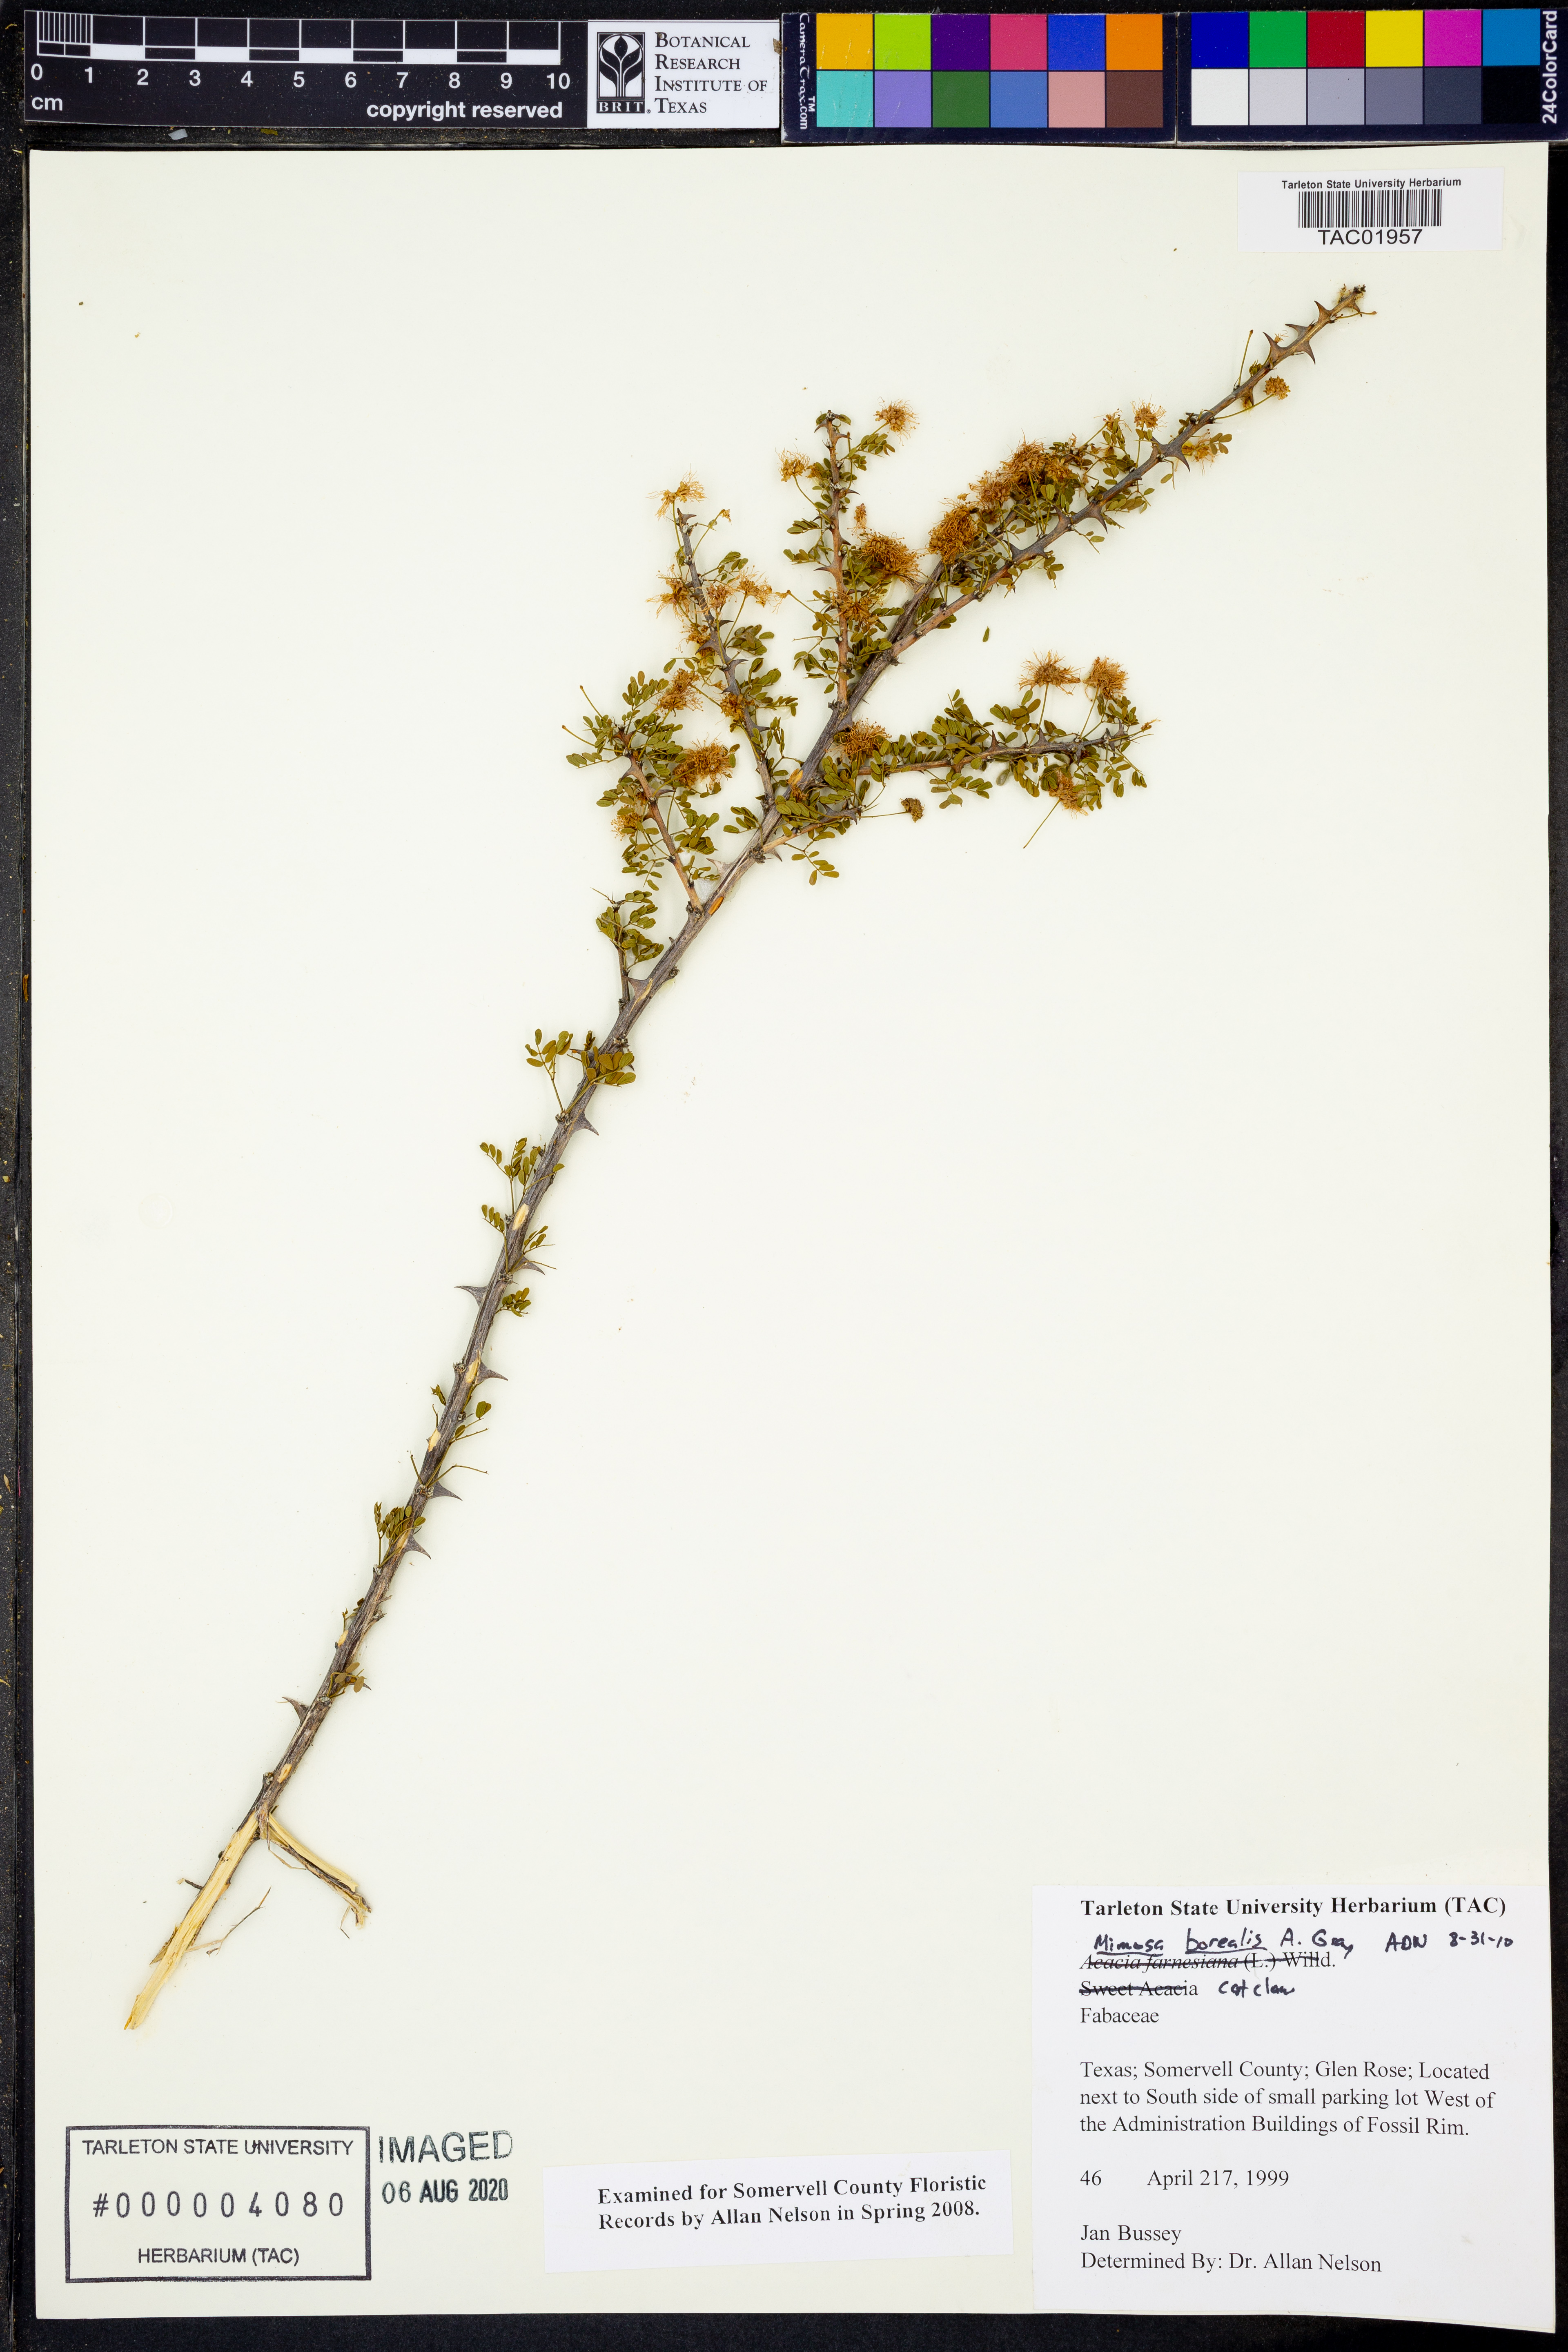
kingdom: Plantae
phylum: Tracheophyta
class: Magnoliopsida
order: Fabales
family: Fabaceae
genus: Mimosa
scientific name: Mimosa borealis
